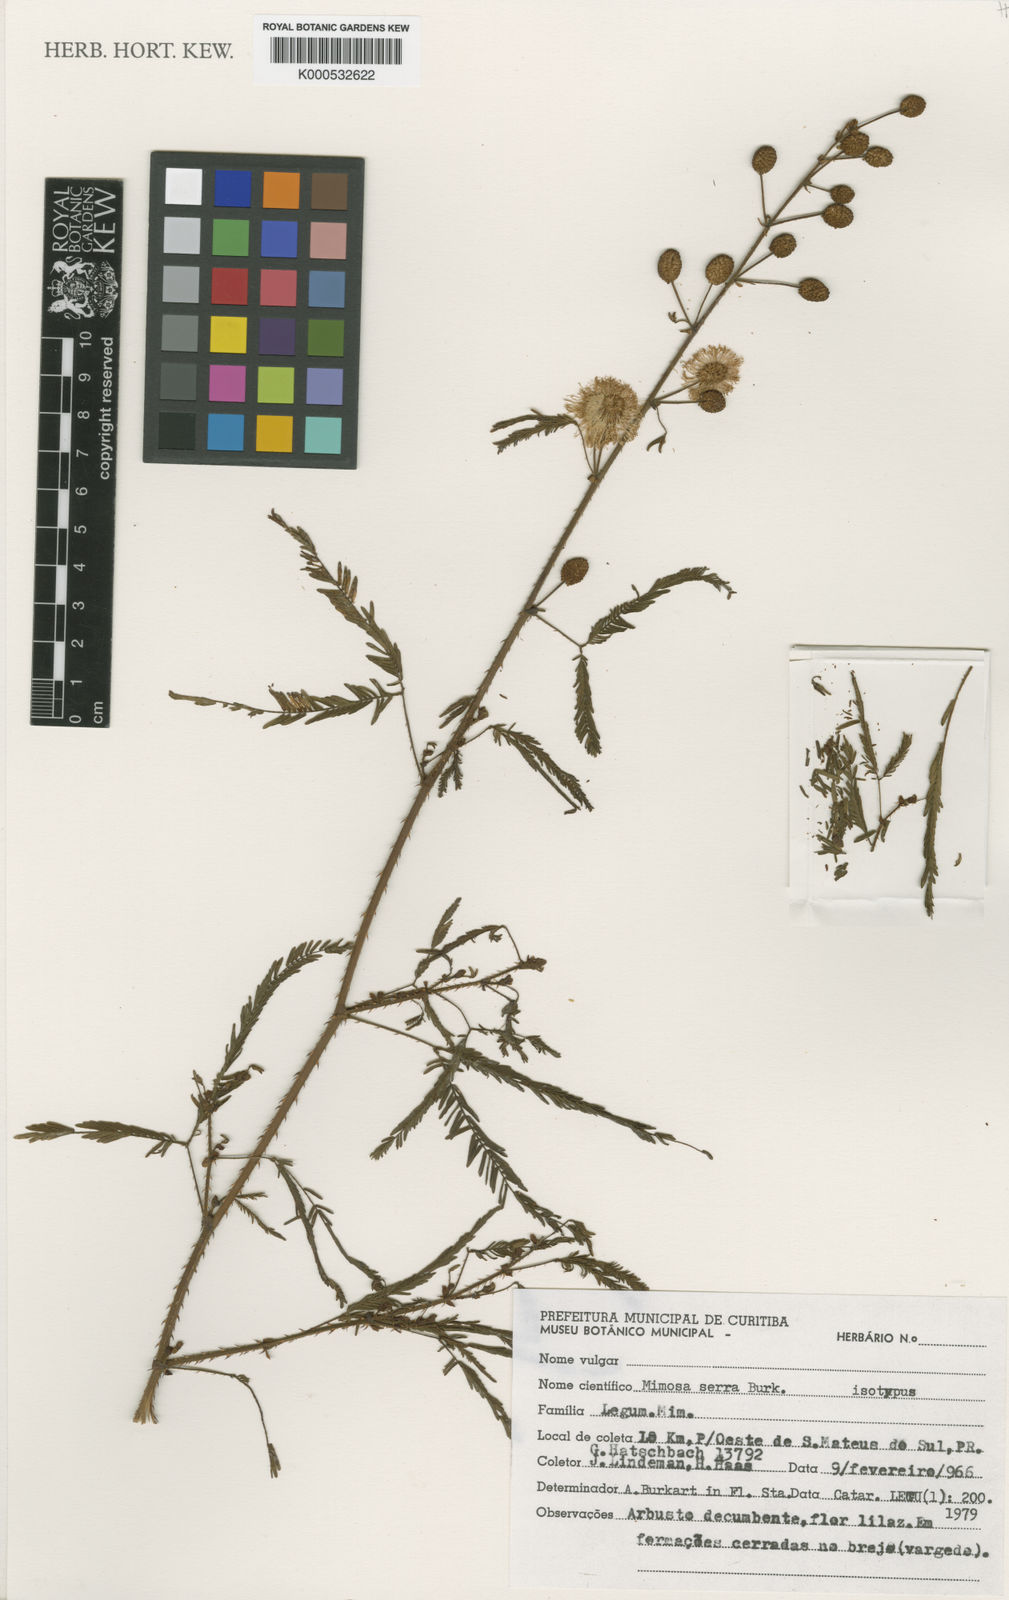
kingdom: Plantae
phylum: Tracheophyta
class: Magnoliopsida
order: Fabales
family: Fabaceae
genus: Mimosa
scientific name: Mimosa serra
